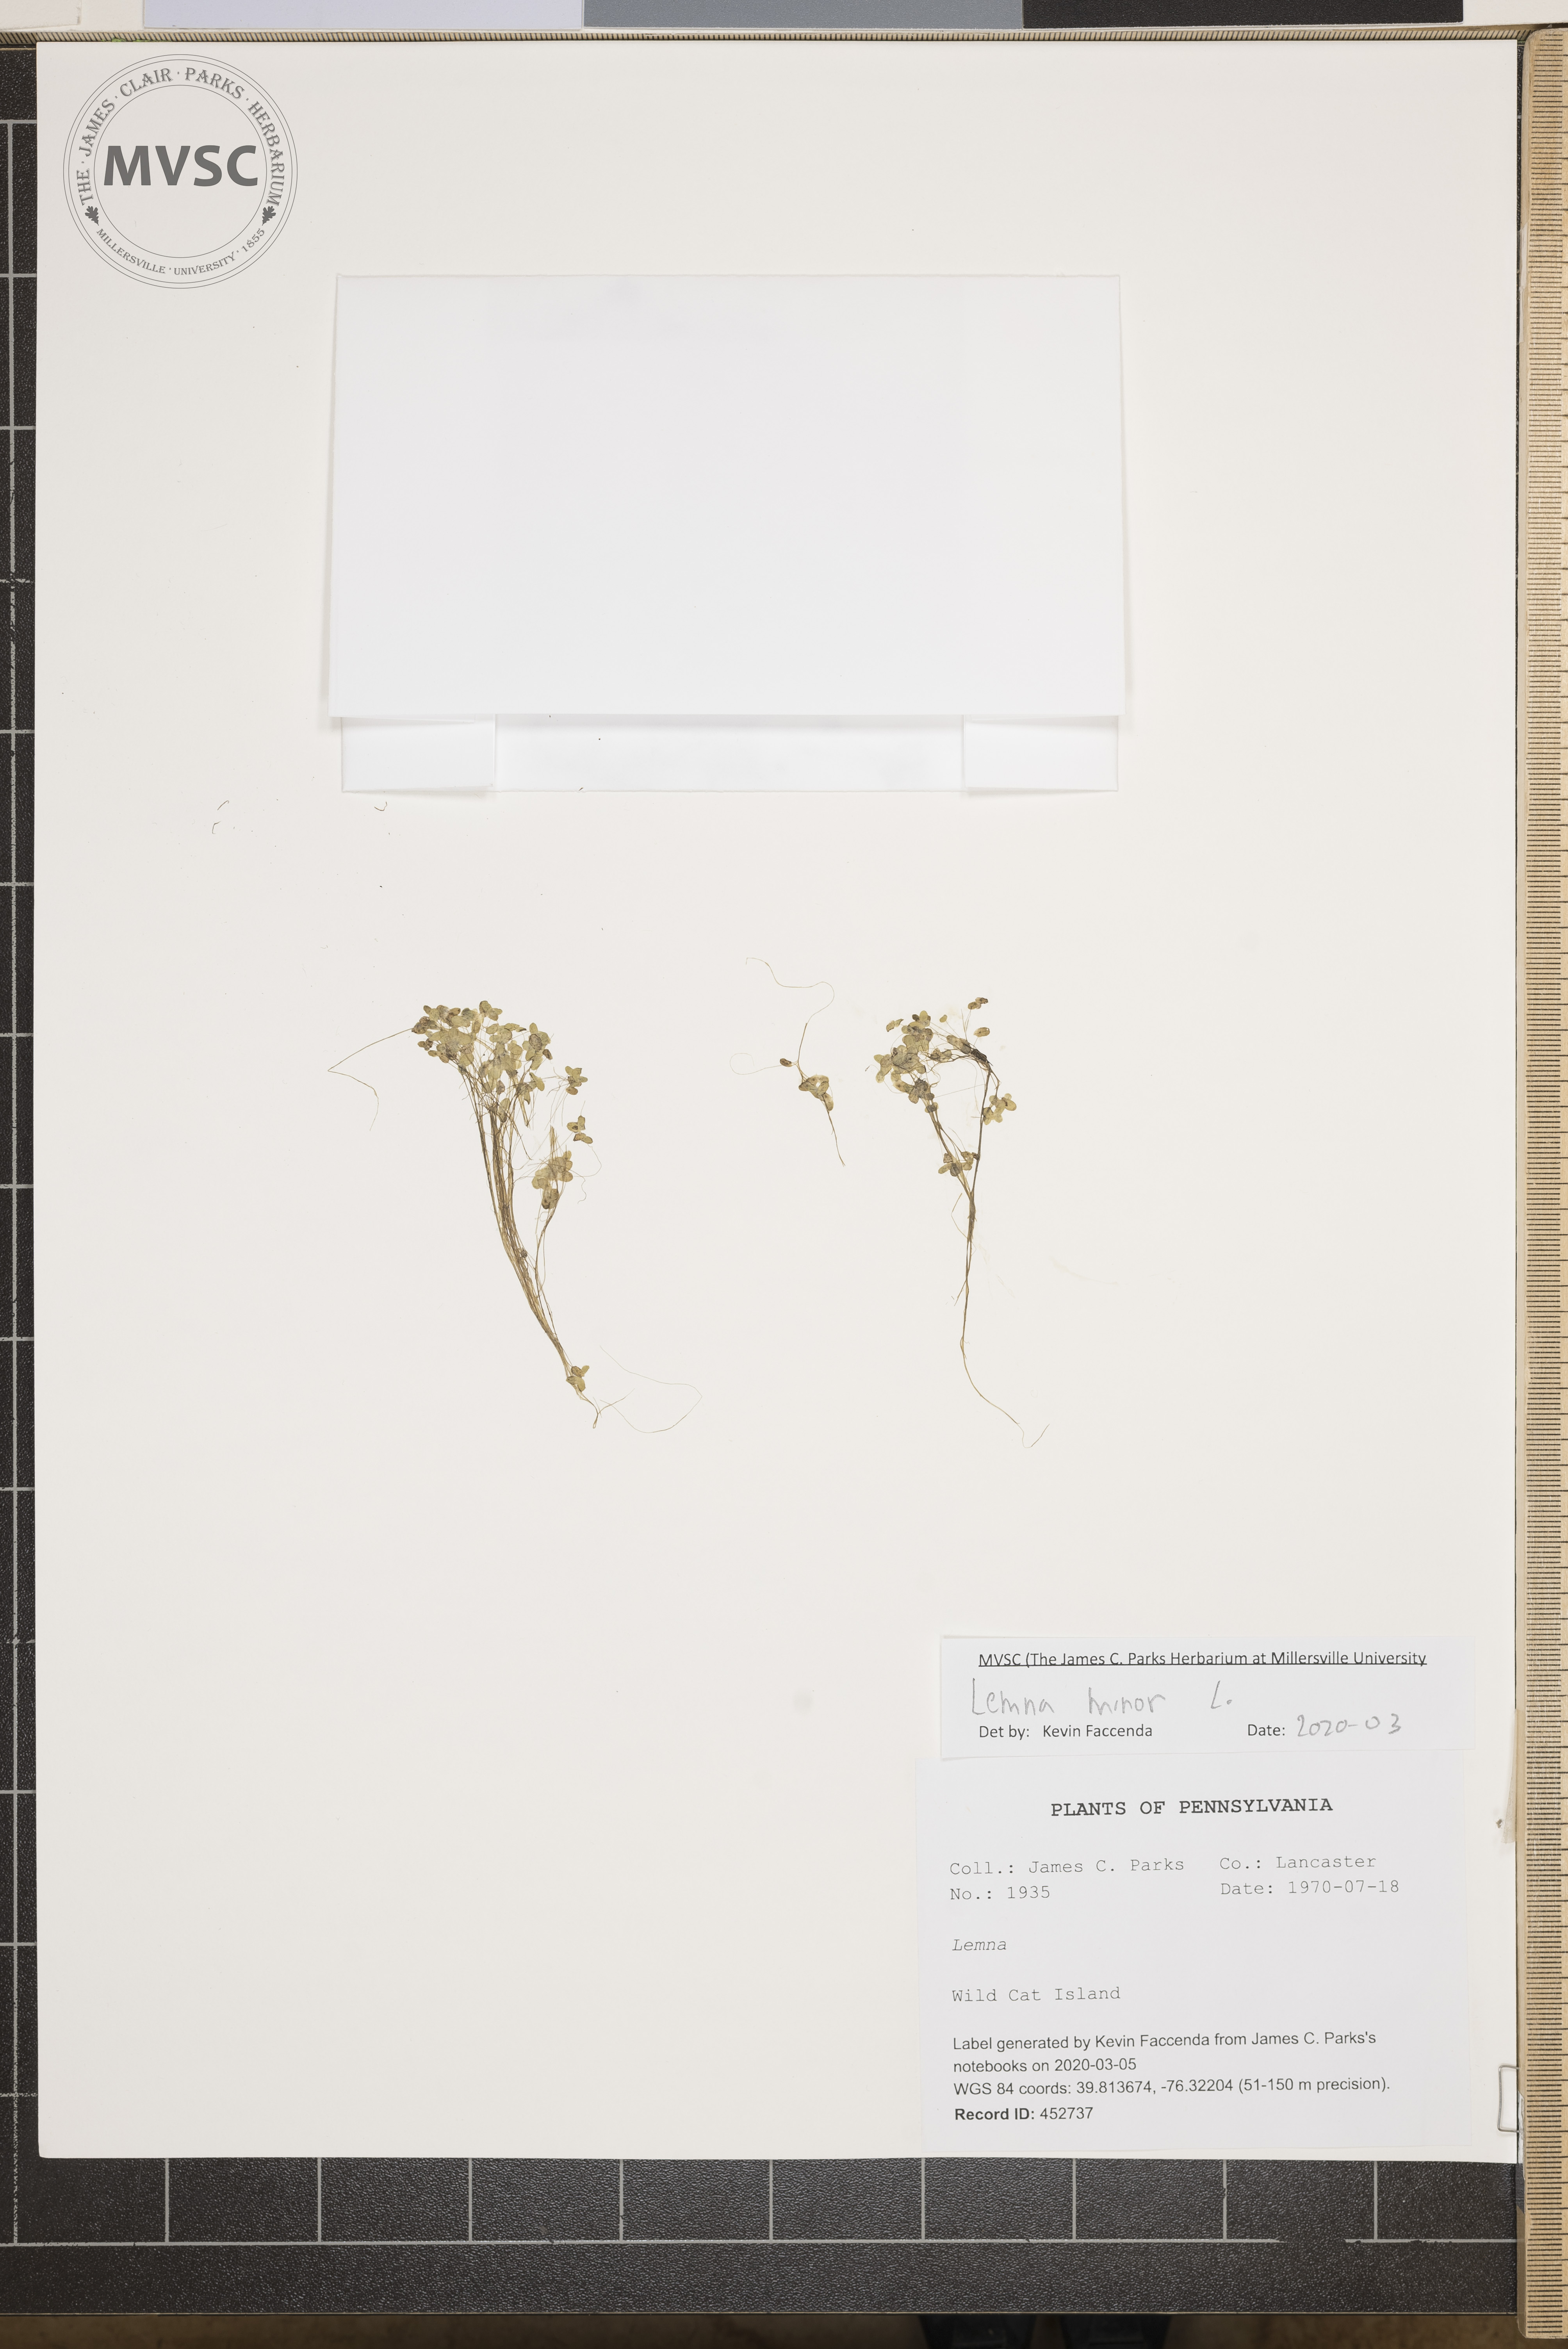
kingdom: Plantae
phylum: Tracheophyta
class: Liliopsida
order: Alismatales
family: Araceae
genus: Lemna
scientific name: Lemna minor
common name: Common duckweed
